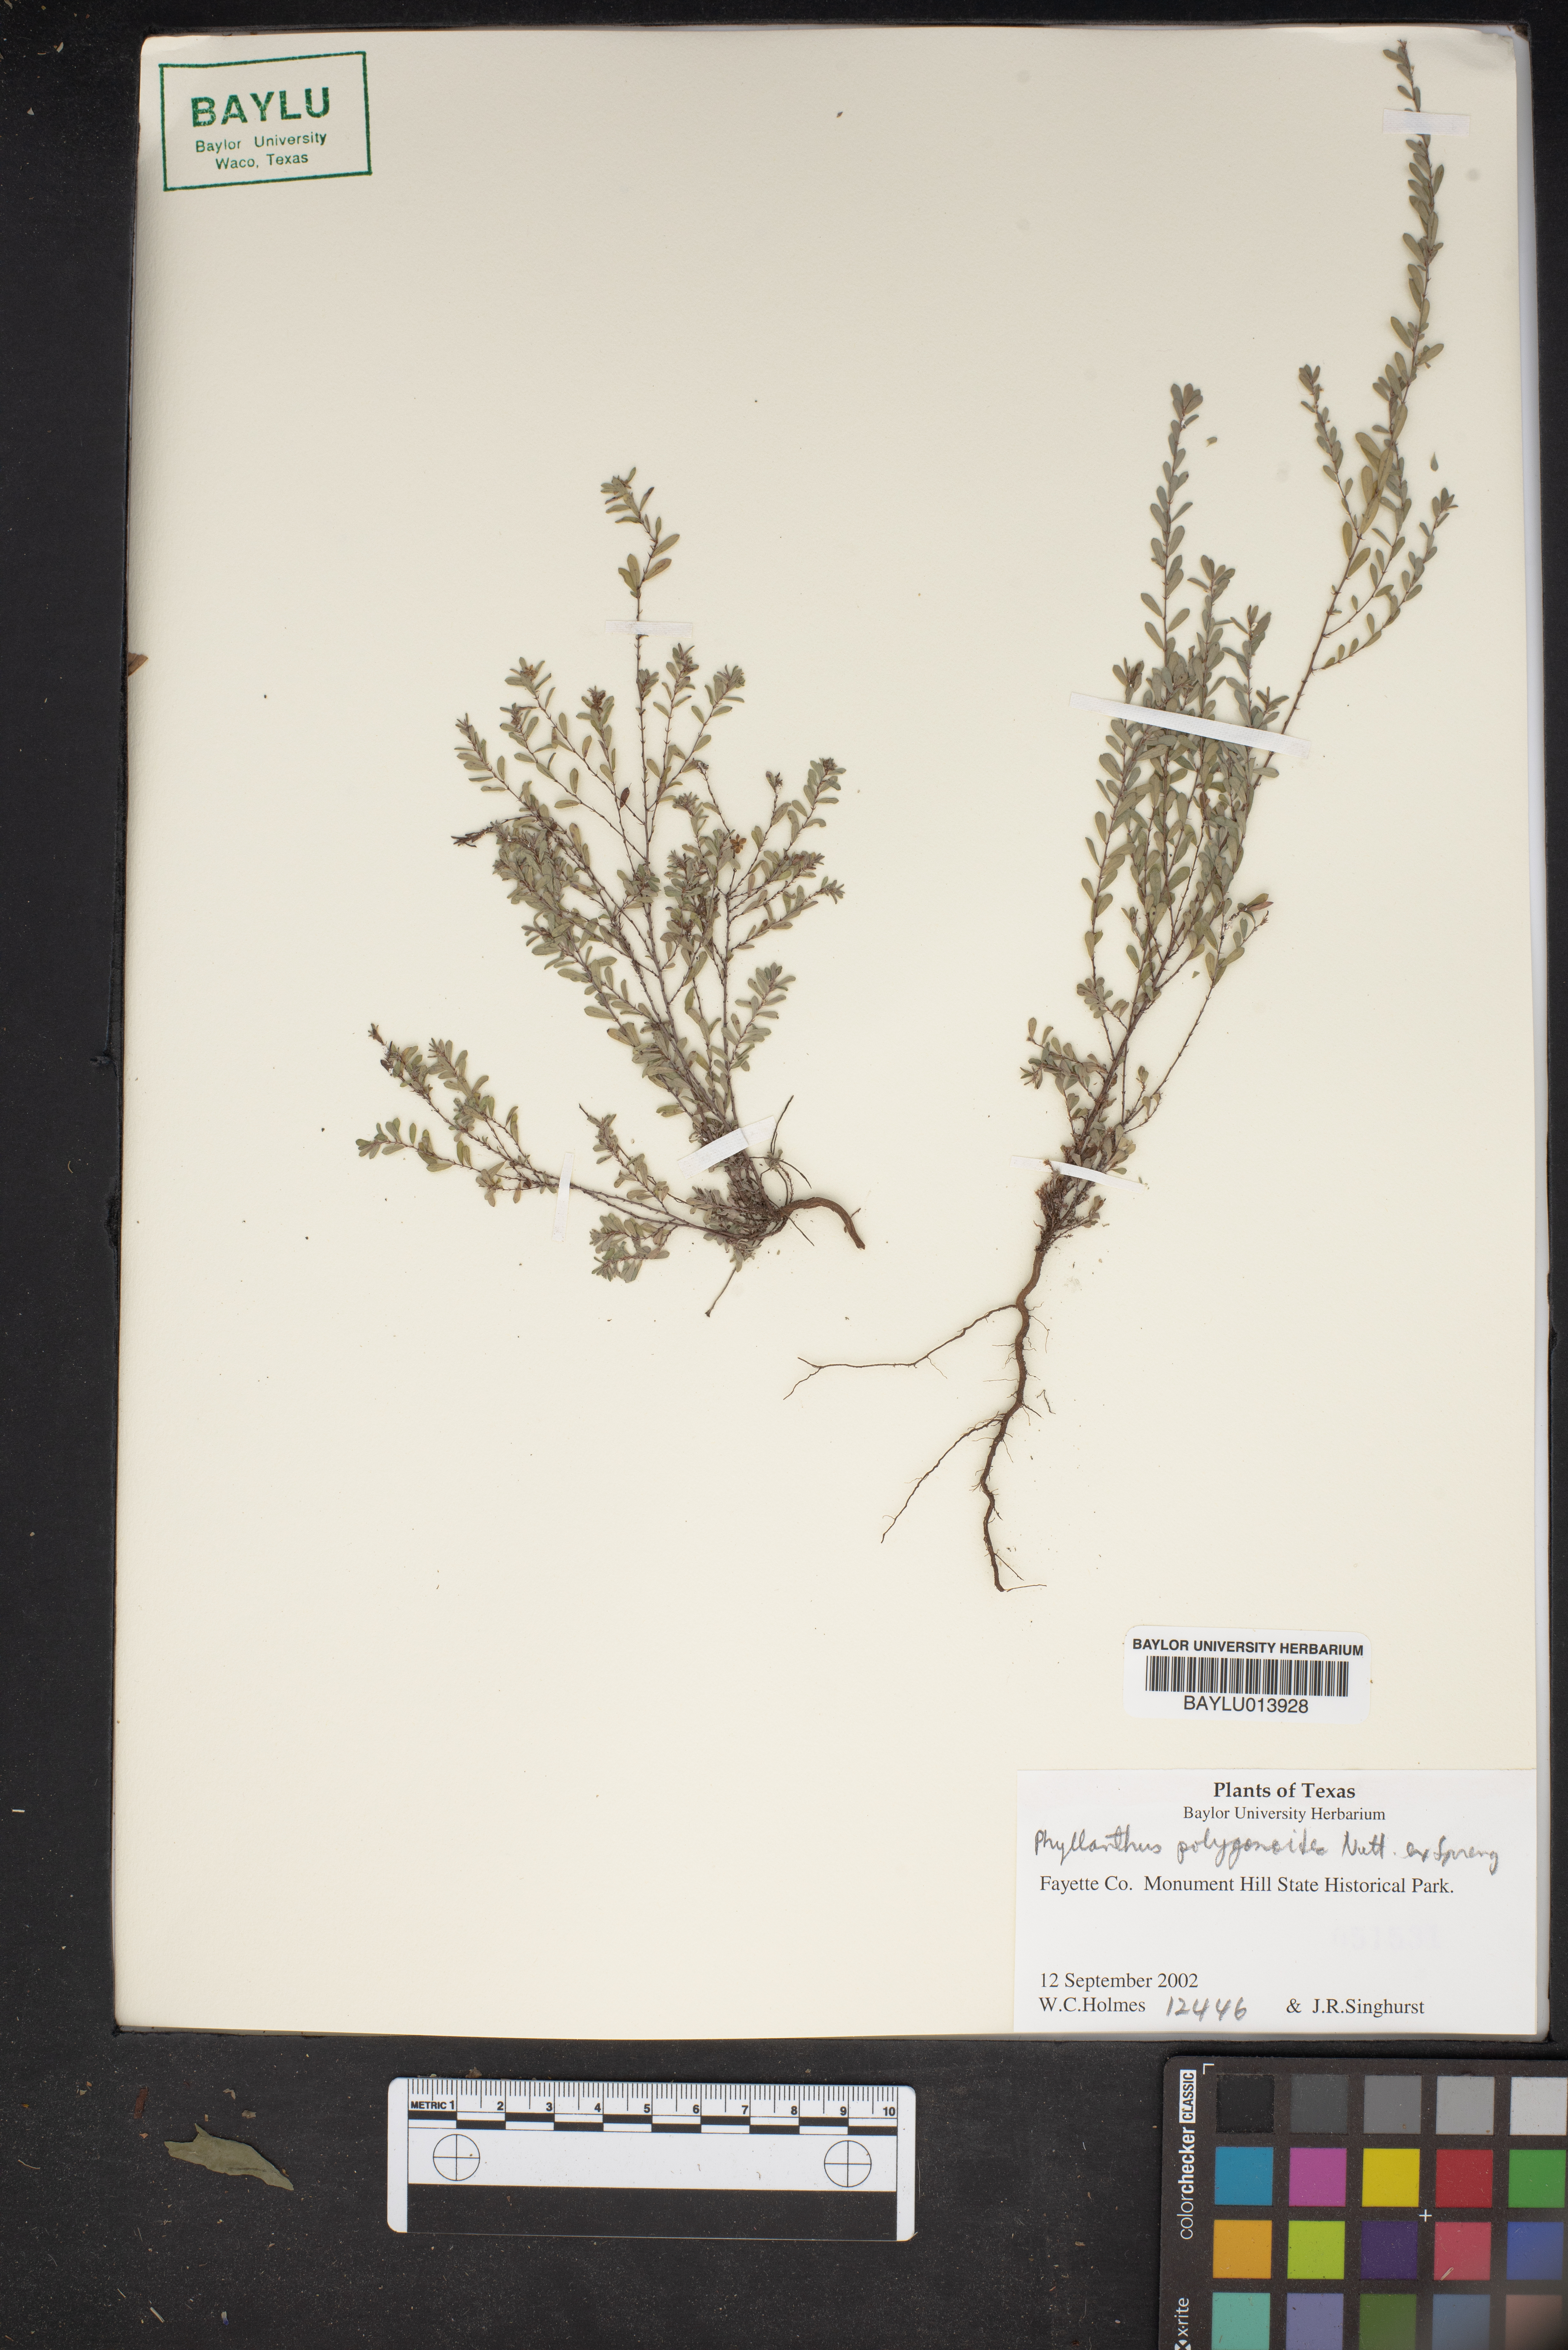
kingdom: Plantae
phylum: Tracheophyta
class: Magnoliopsida
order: Malpighiales
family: Phyllanthaceae
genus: Phyllanthus
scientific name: Phyllanthus polygonoides
